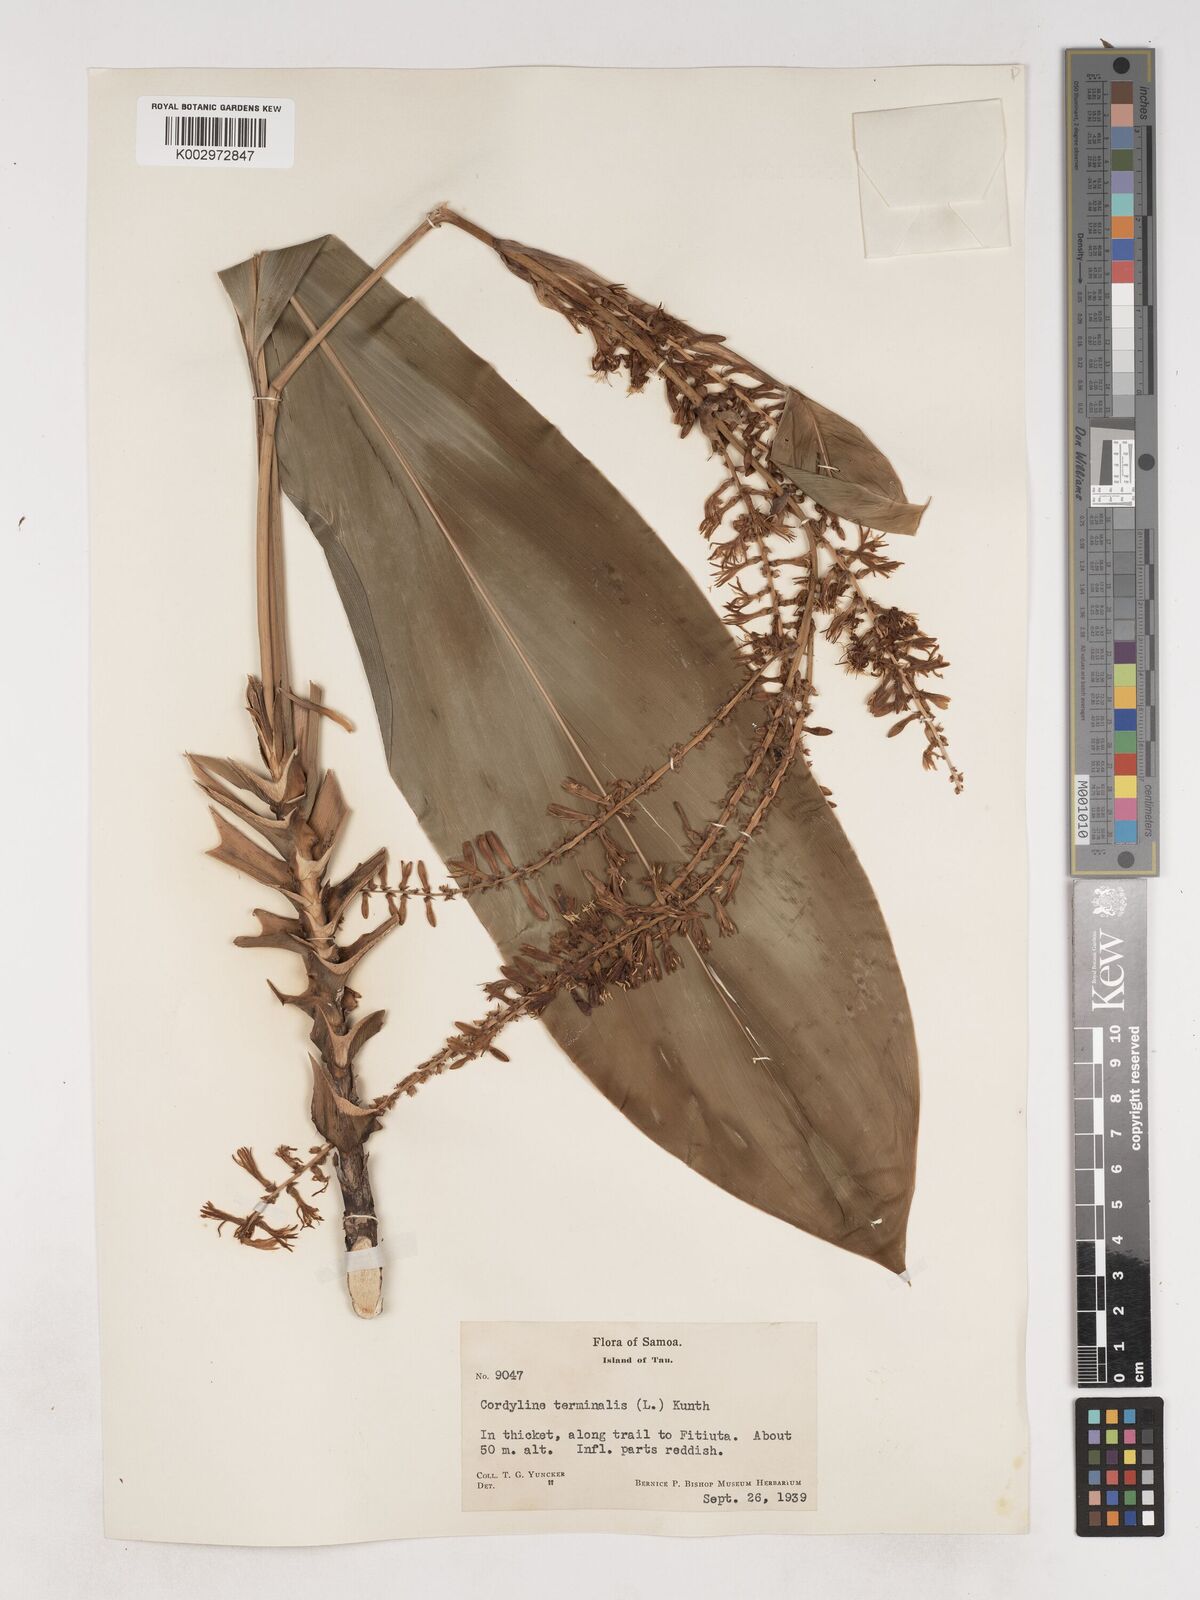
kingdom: Plantae
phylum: Tracheophyta
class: Liliopsida
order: Asparagales
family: Asparagaceae
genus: Cordyline
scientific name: Cordyline fruticosa
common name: Good-luck-plant
